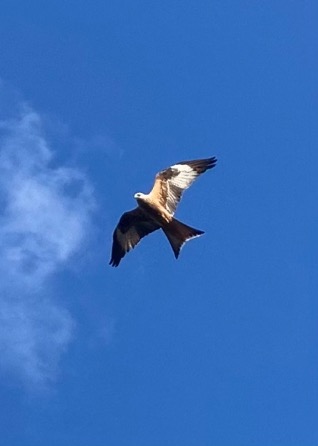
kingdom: Animalia
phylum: Chordata
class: Aves
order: Accipitriformes
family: Accipitridae
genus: Milvus
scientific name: Milvus milvus
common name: Rød glente
